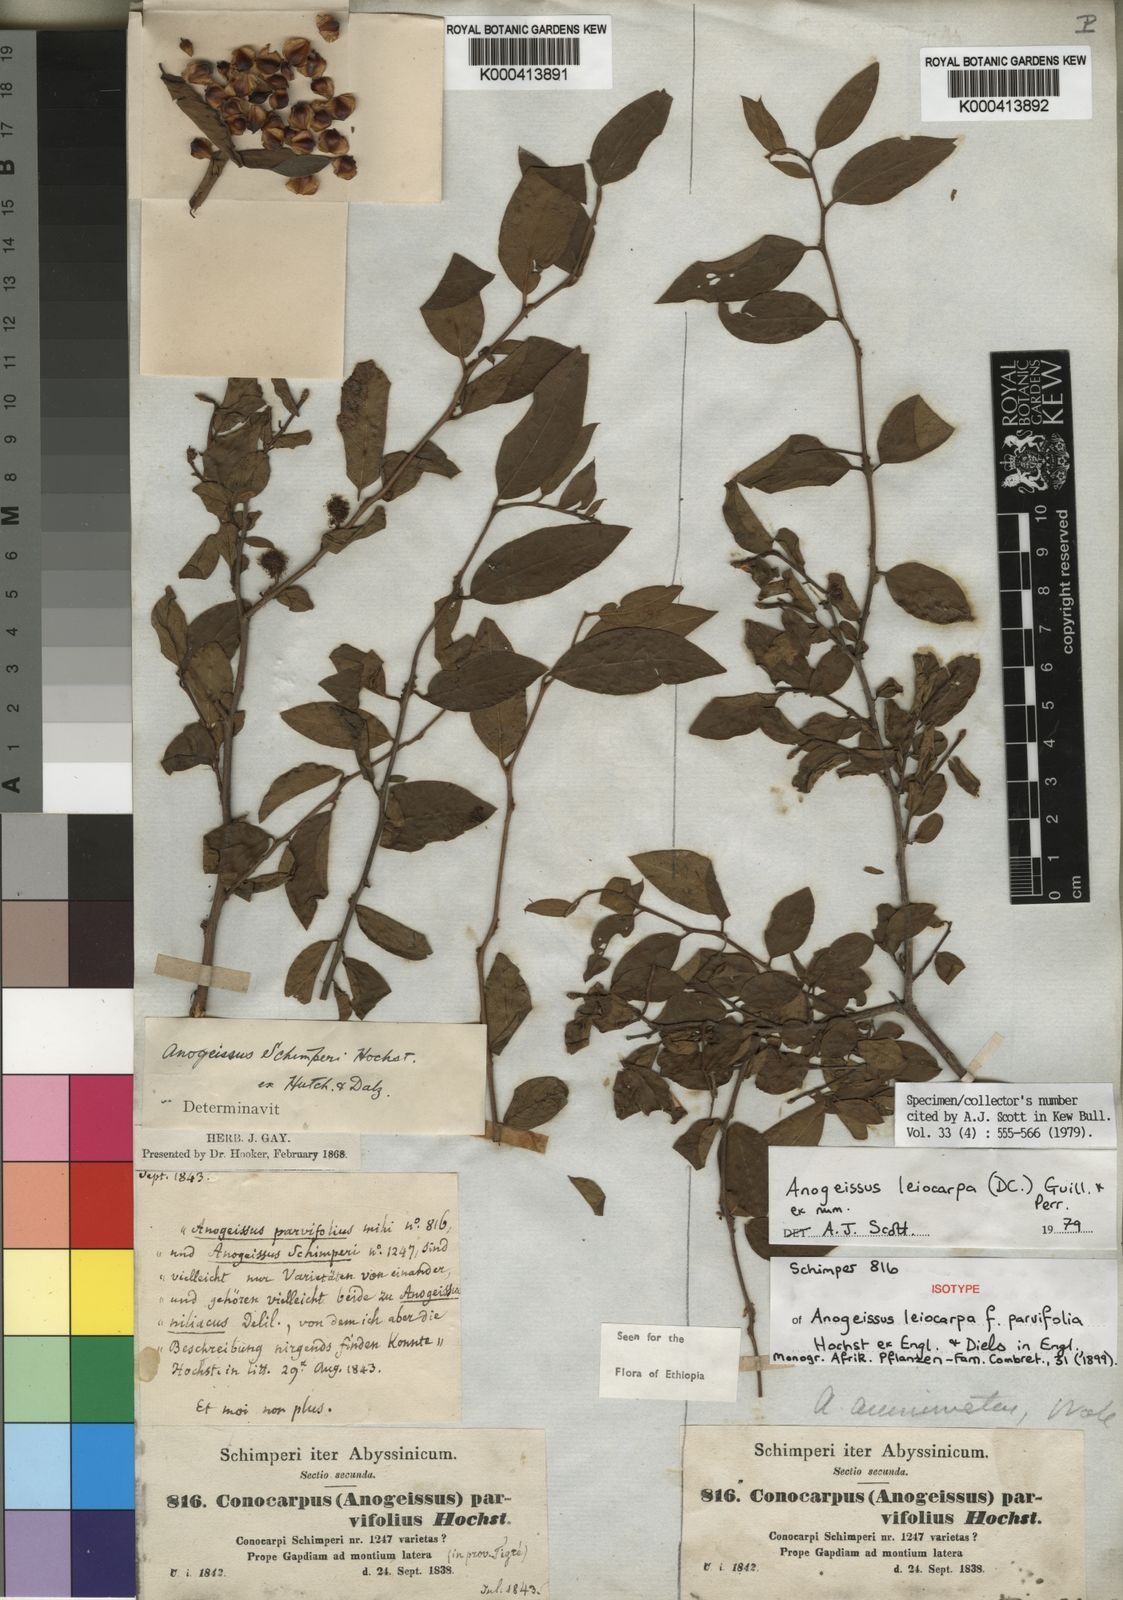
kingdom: Plantae
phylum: Tracheophyta
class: Magnoliopsida
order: Myrtales
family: Combretaceae
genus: Terminalia
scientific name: Terminalia leiocarpa
